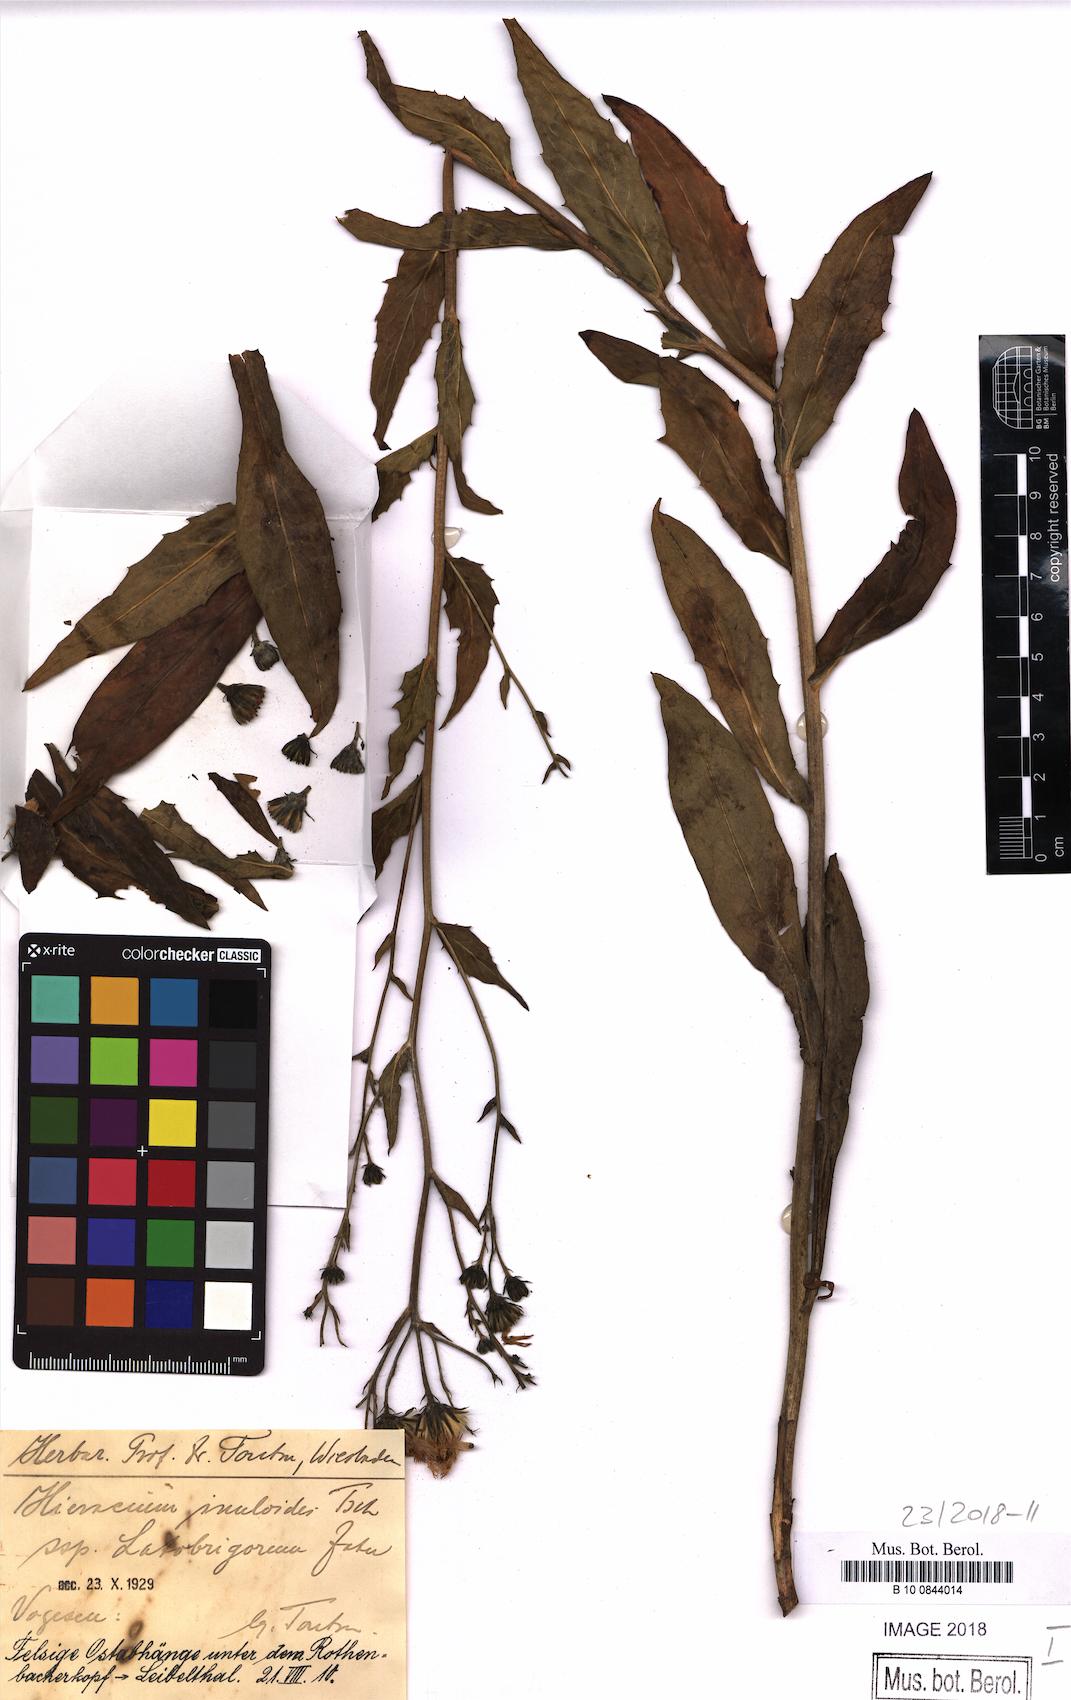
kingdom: Plantae
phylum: Tracheophyta
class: Magnoliopsida
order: Asterales
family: Asteraceae
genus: Hieracium
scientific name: Hieracium inuloides
